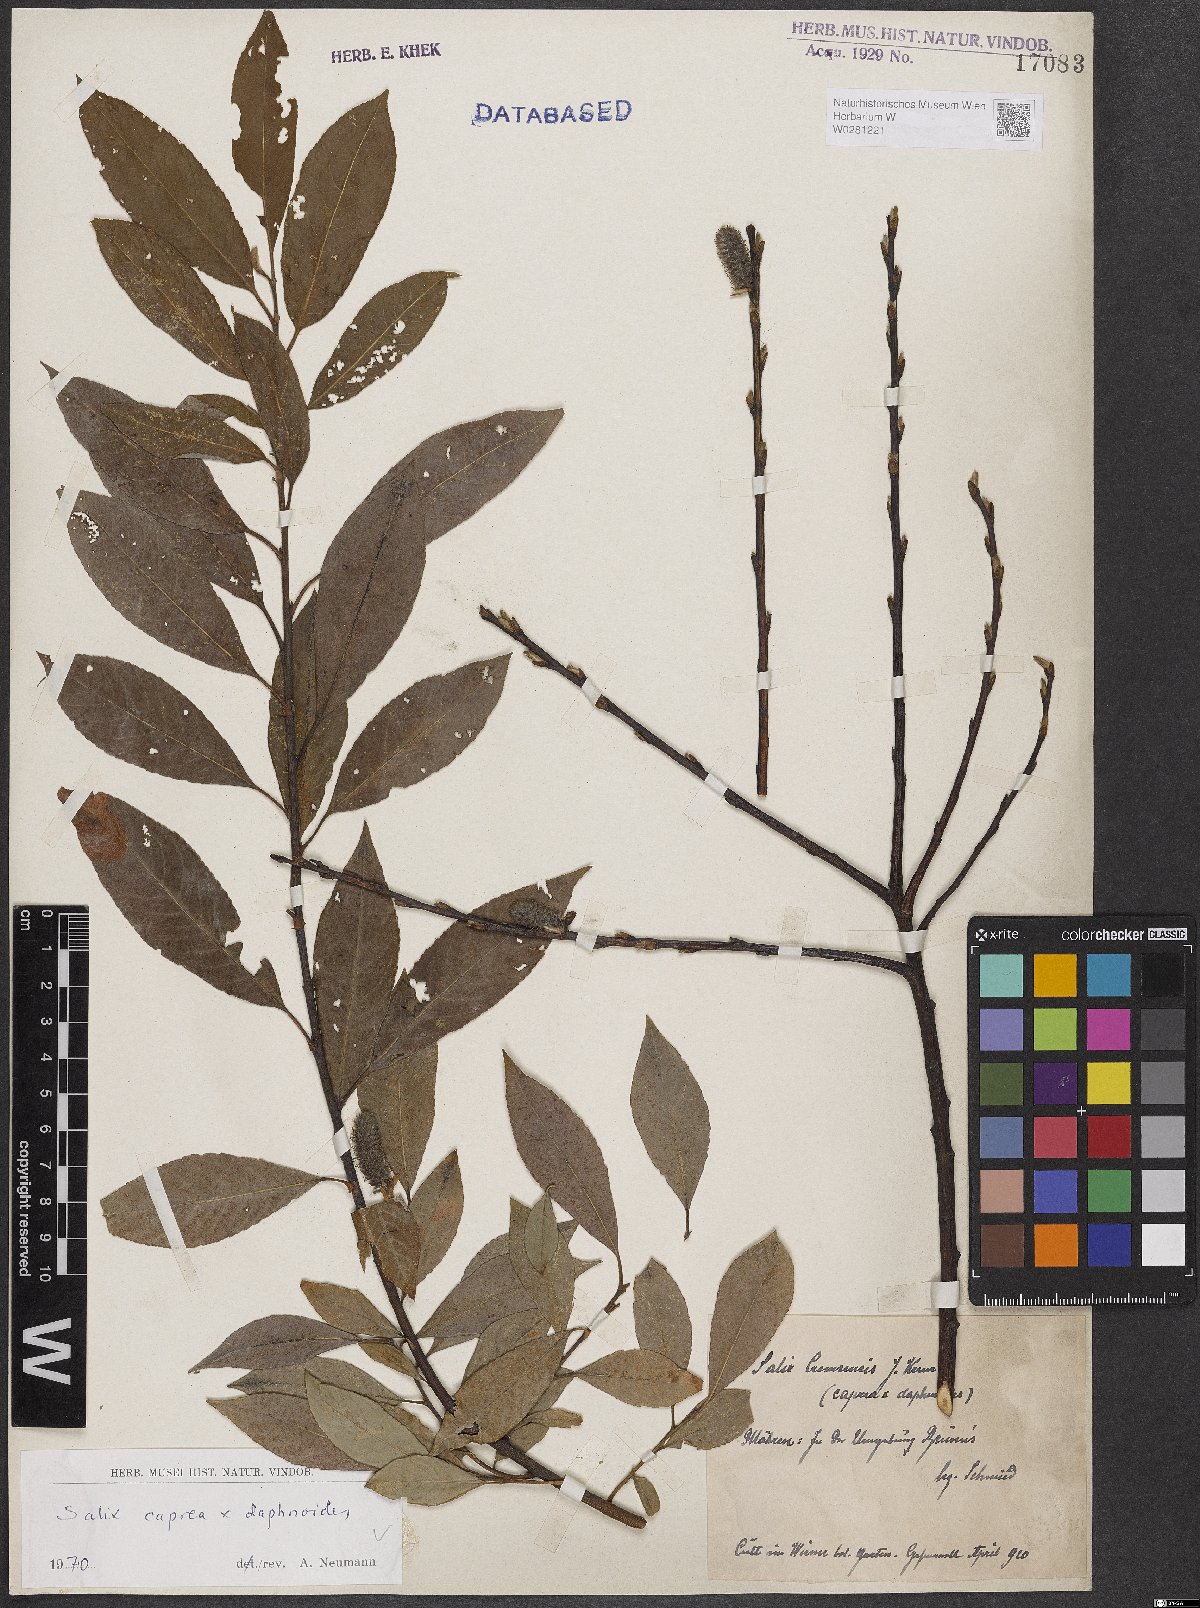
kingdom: Plantae
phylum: Tracheophyta
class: Magnoliopsida
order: Malpighiales
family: Salicaceae
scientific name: Salicaceae
